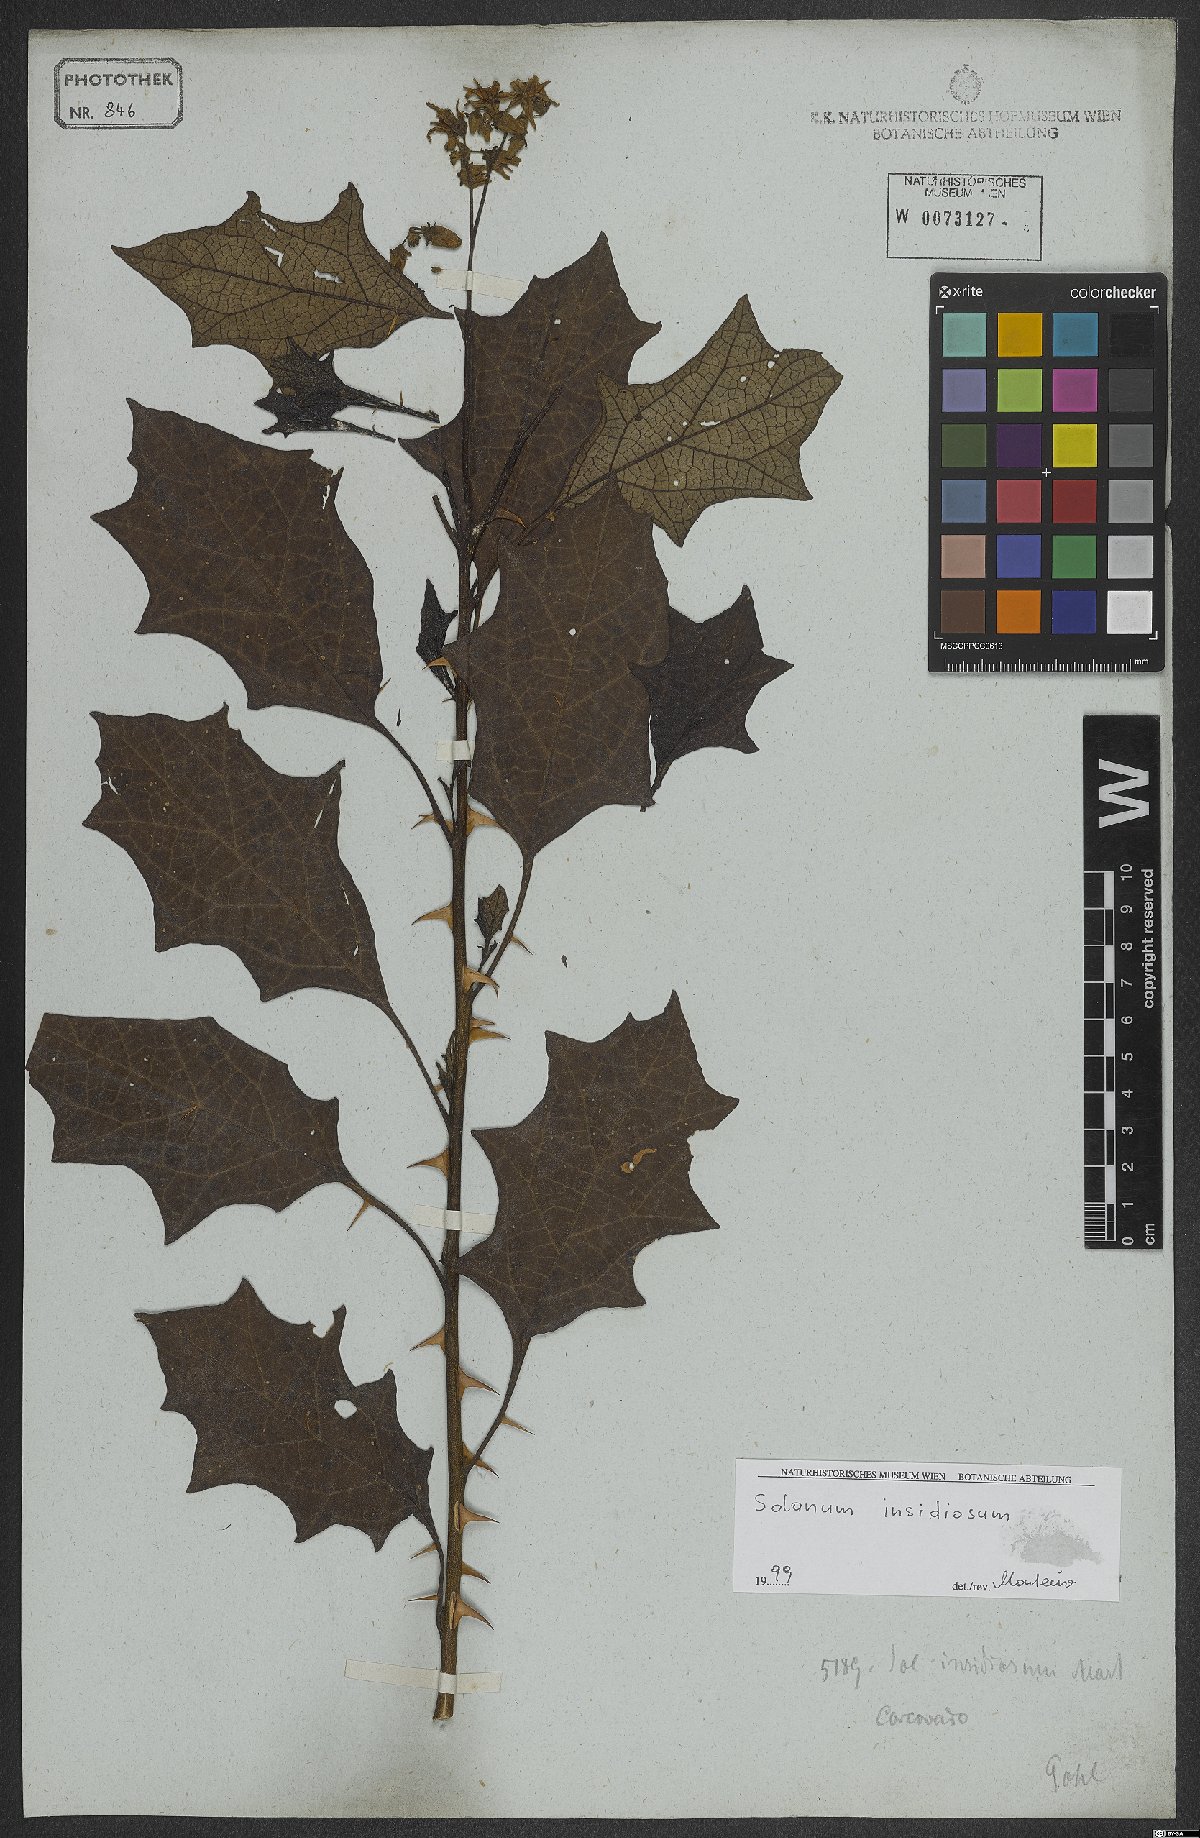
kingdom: Plantae
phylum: Tracheophyta
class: Magnoliopsida
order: Solanales
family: Solanaceae
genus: Solanum
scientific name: Solanum insidiosum
